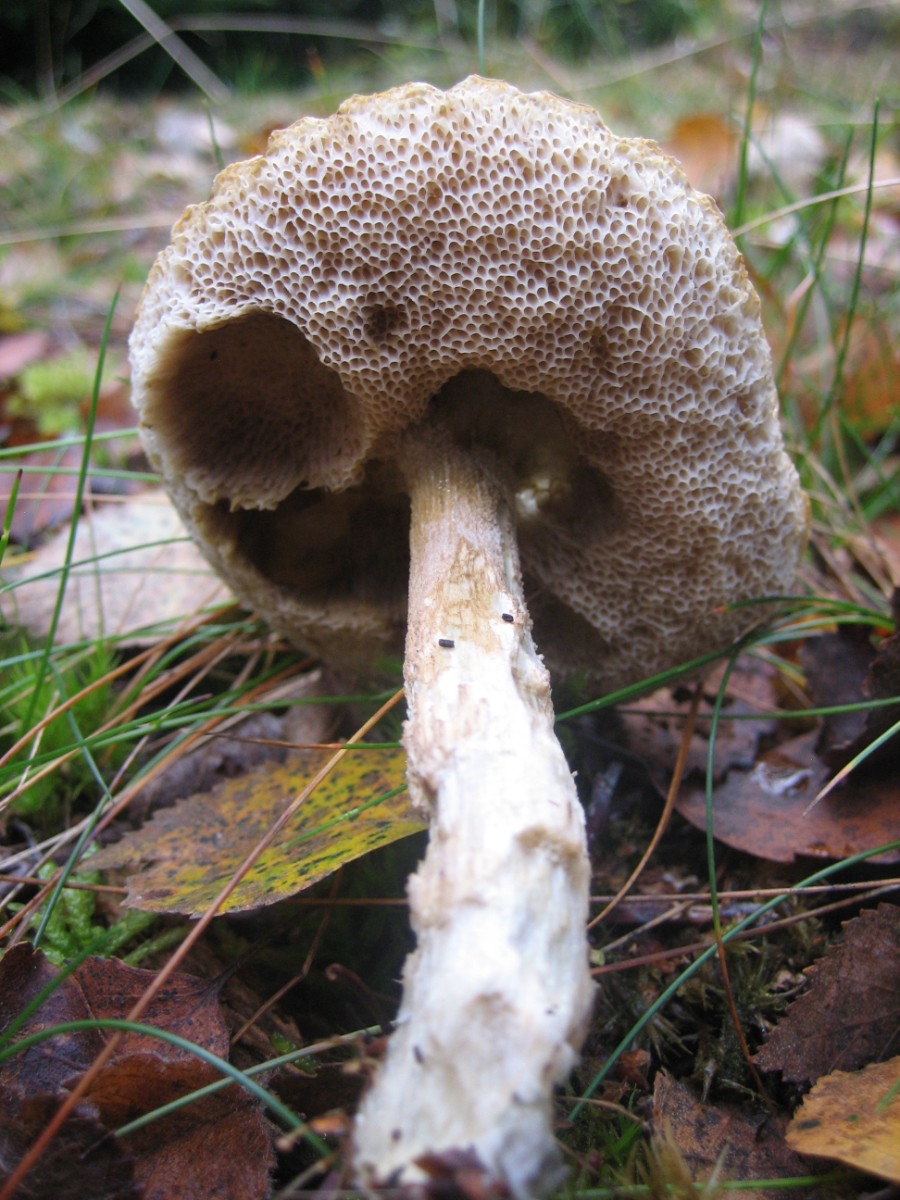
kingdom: Fungi
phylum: Basidiomycota
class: Agaricomycetes
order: Boletales
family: Boletaceae
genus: Leccinum
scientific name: Leccinum
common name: skælrørhat
